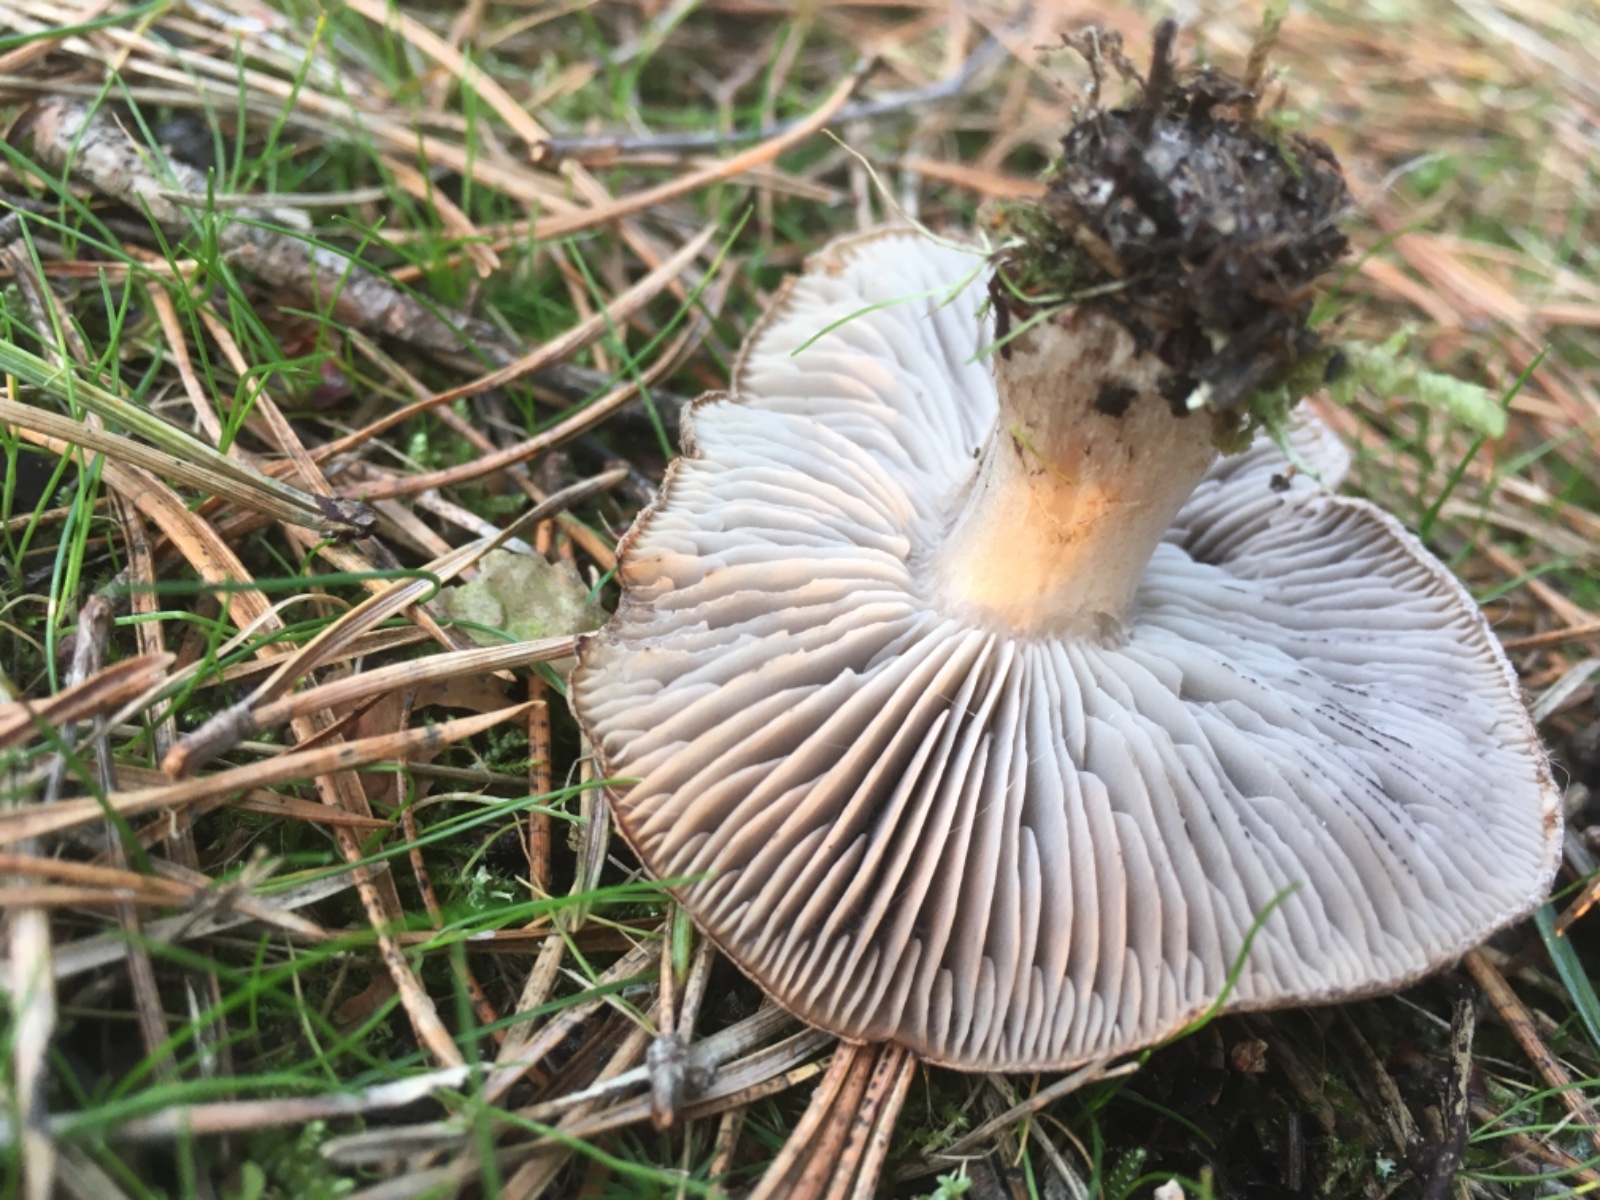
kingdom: Fungi
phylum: Basidiomycota
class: Agaricomycetes
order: Agaricales
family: Tricholomataceae
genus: Tricholoma
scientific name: Tricholoma terreum
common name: jordfarvet ridderhat
